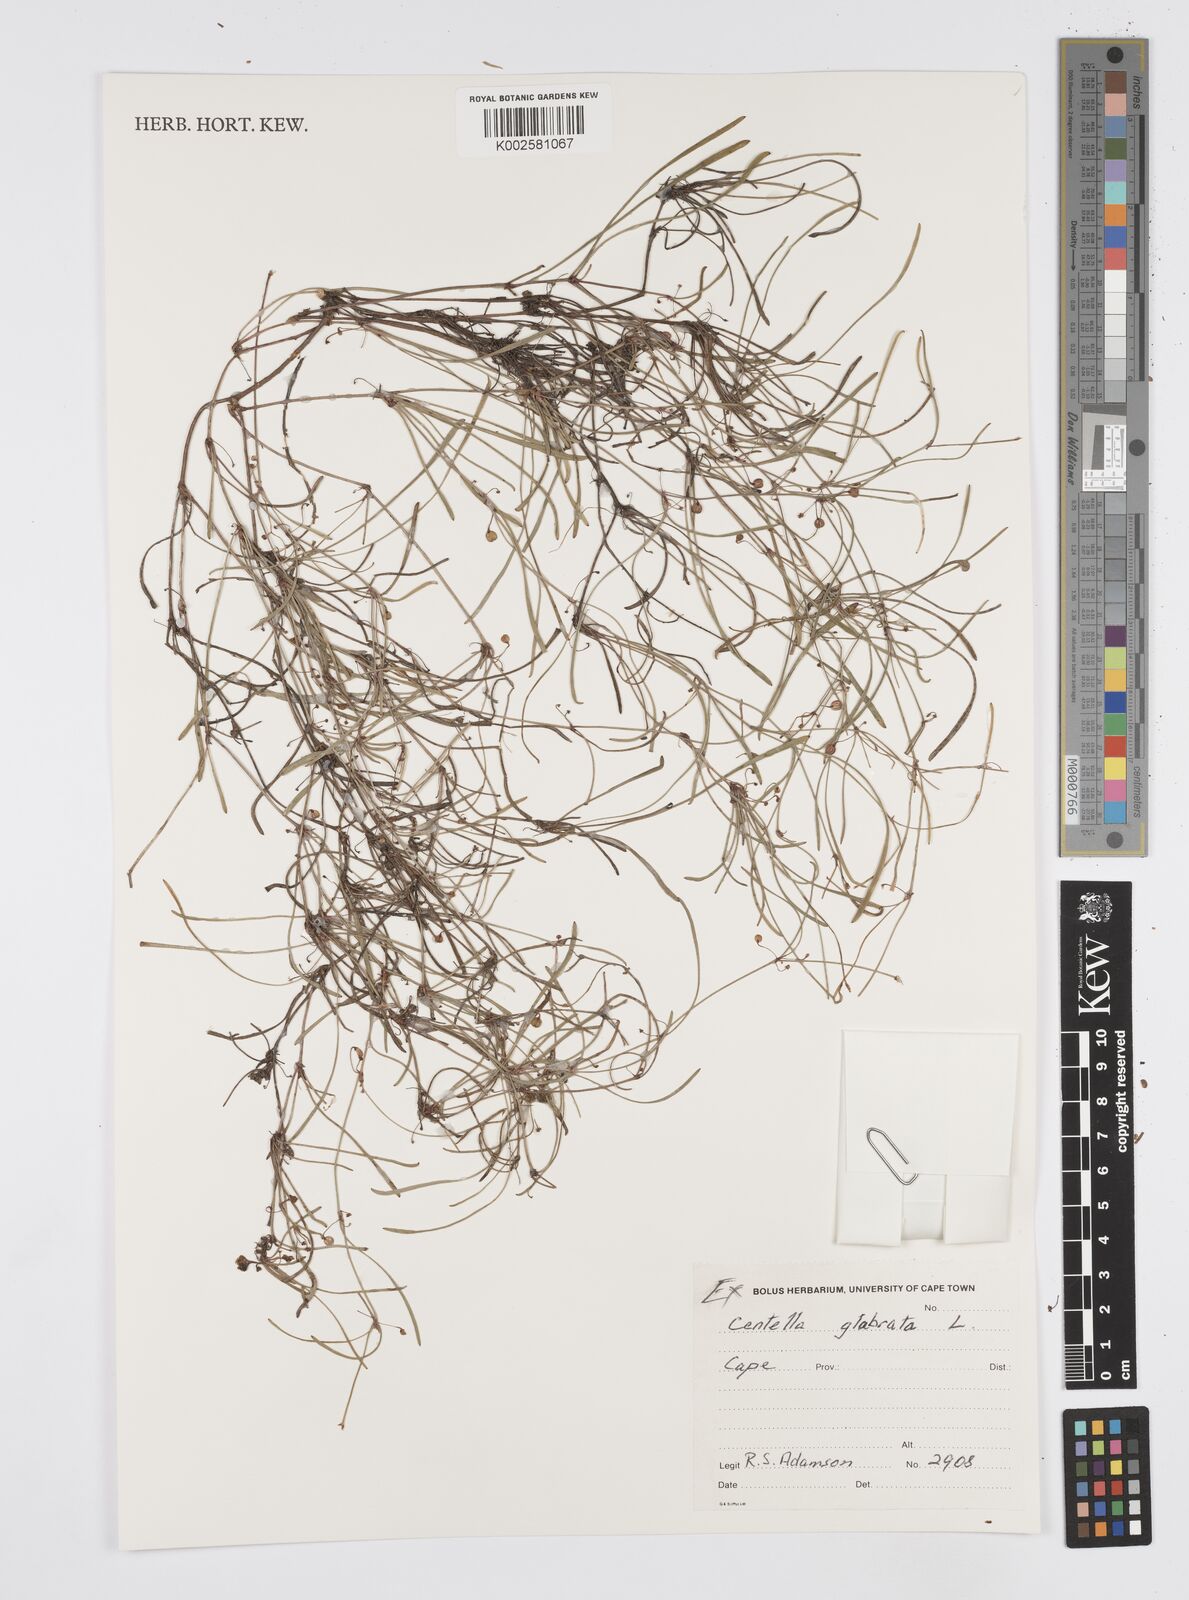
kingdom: Plantae
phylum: Tracheophyta
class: Magnoliopsida
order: Apiales
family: Apiaceae
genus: Centella
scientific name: Centella glabrata
